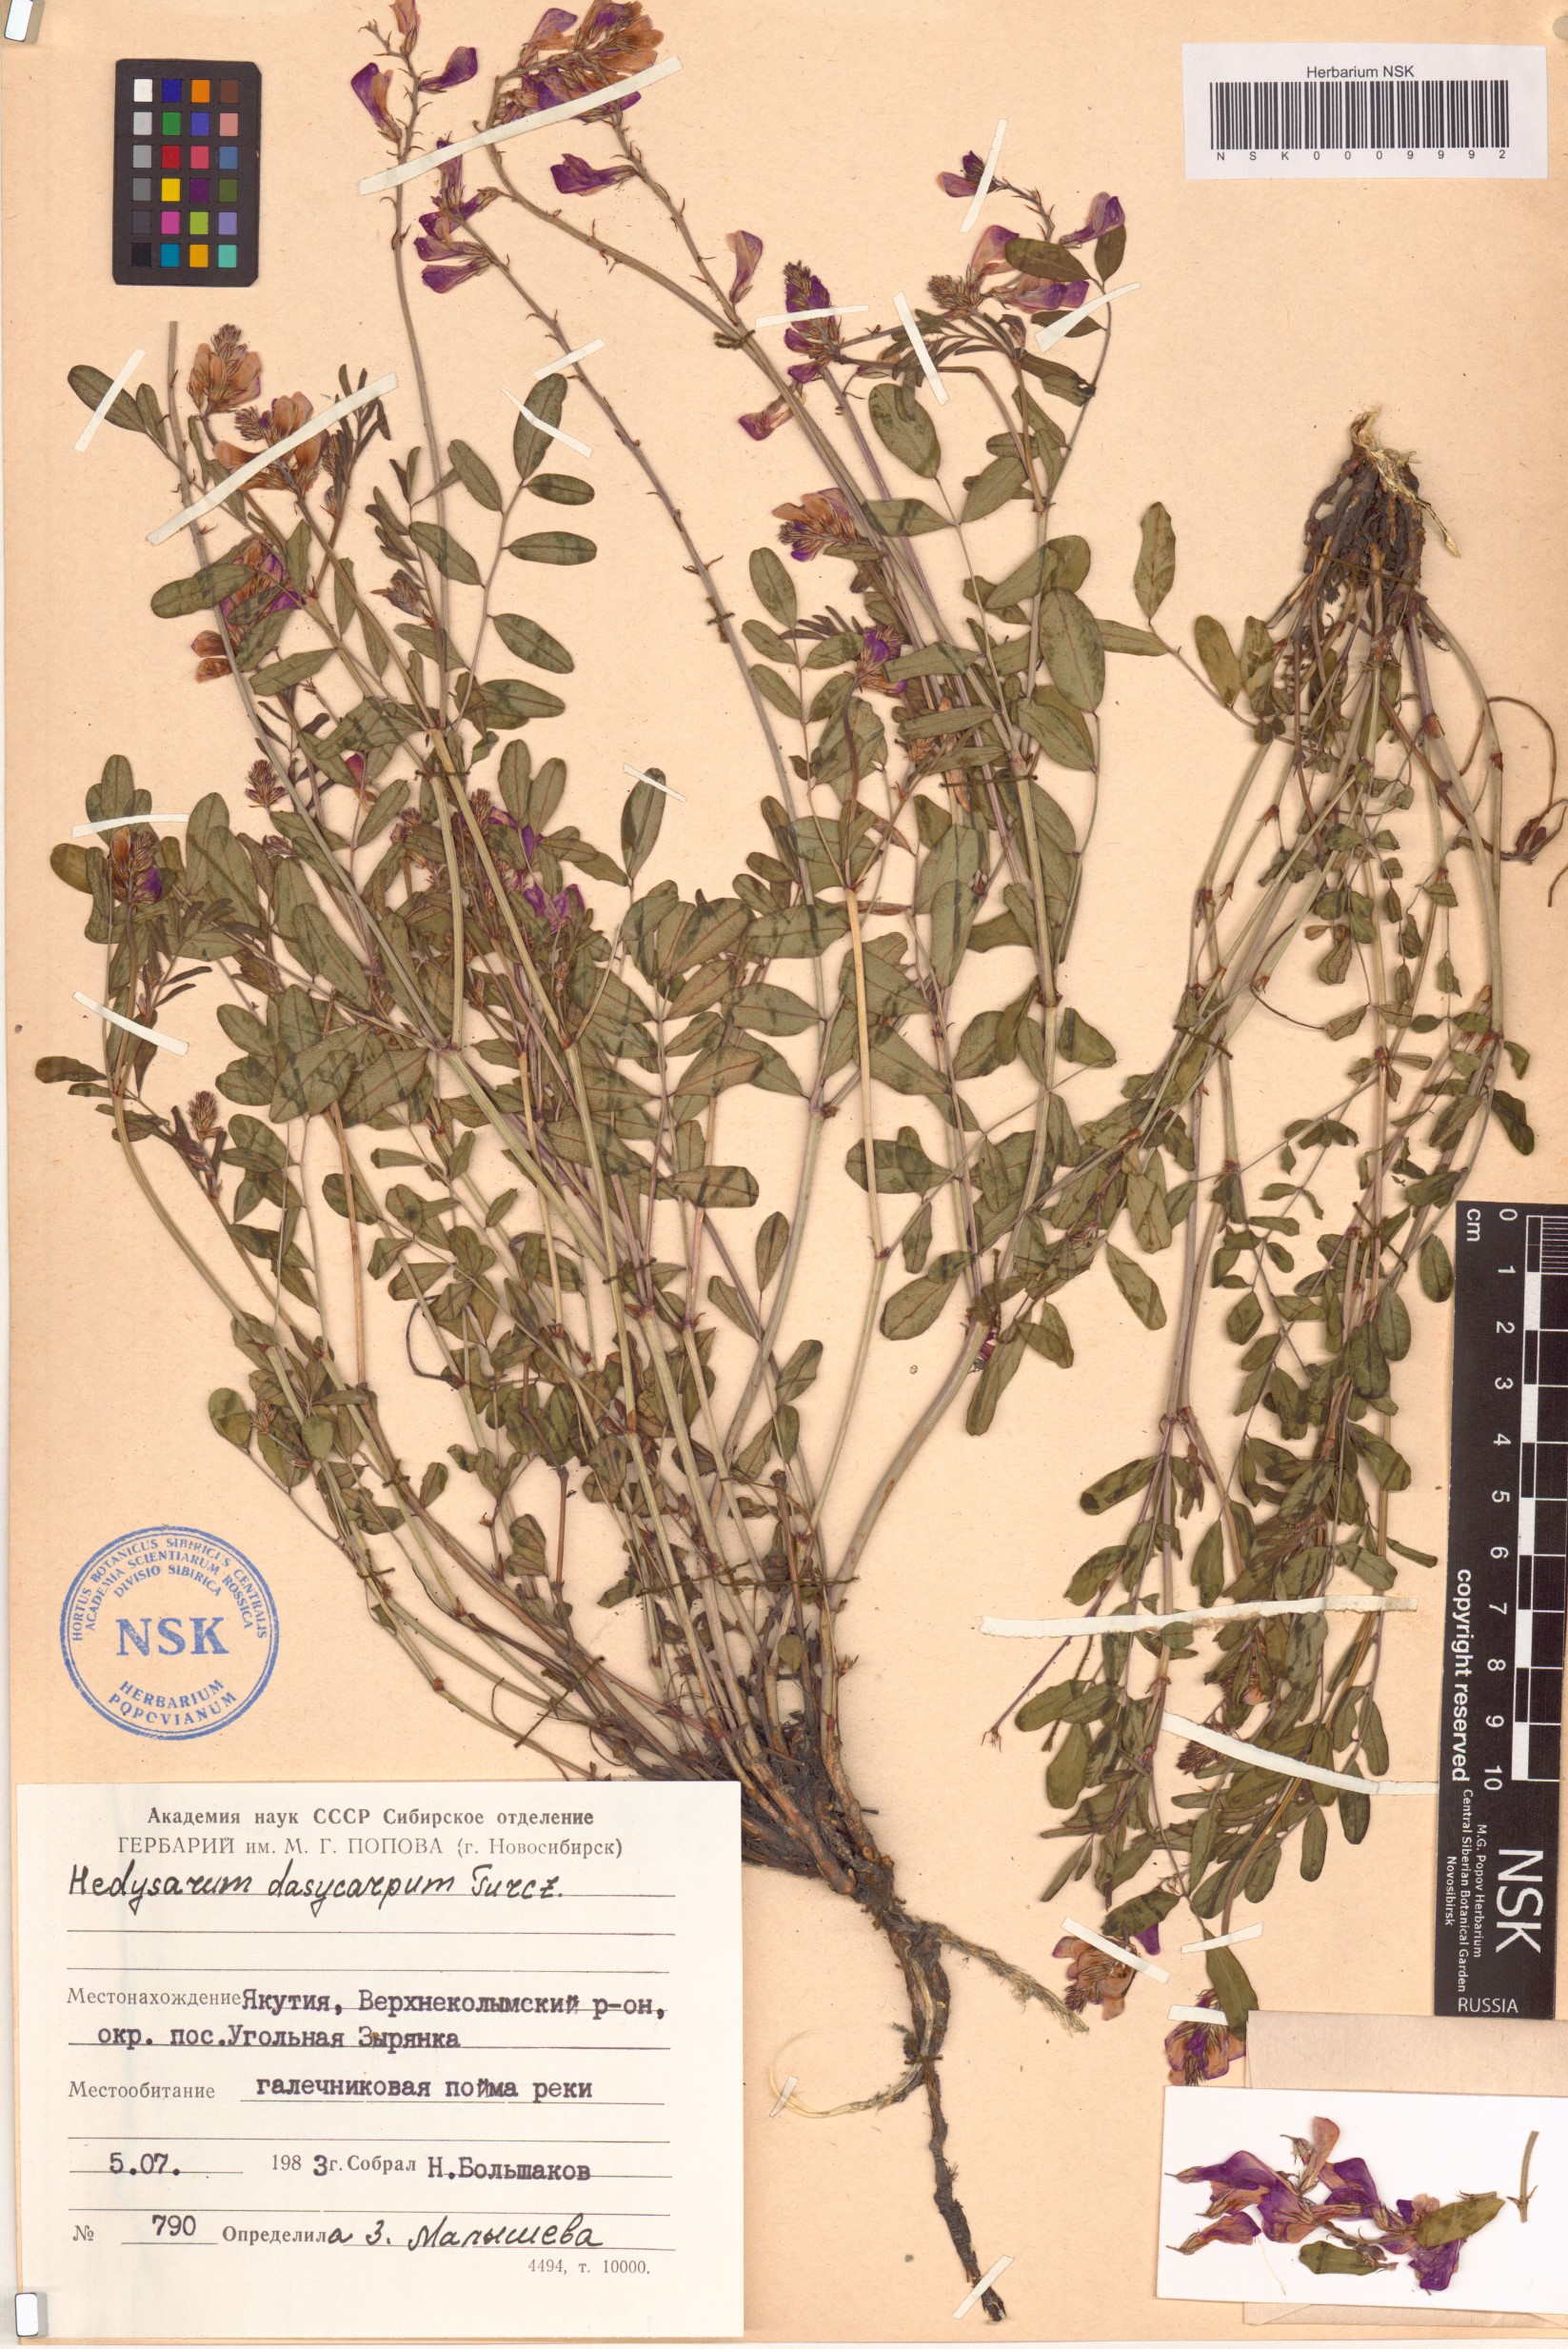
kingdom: Plantae
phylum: Tracheophyta
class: Magnoliopsida
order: Fabales
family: Fabaceae
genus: Hedysarum
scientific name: Hedysarum dasycarpum
